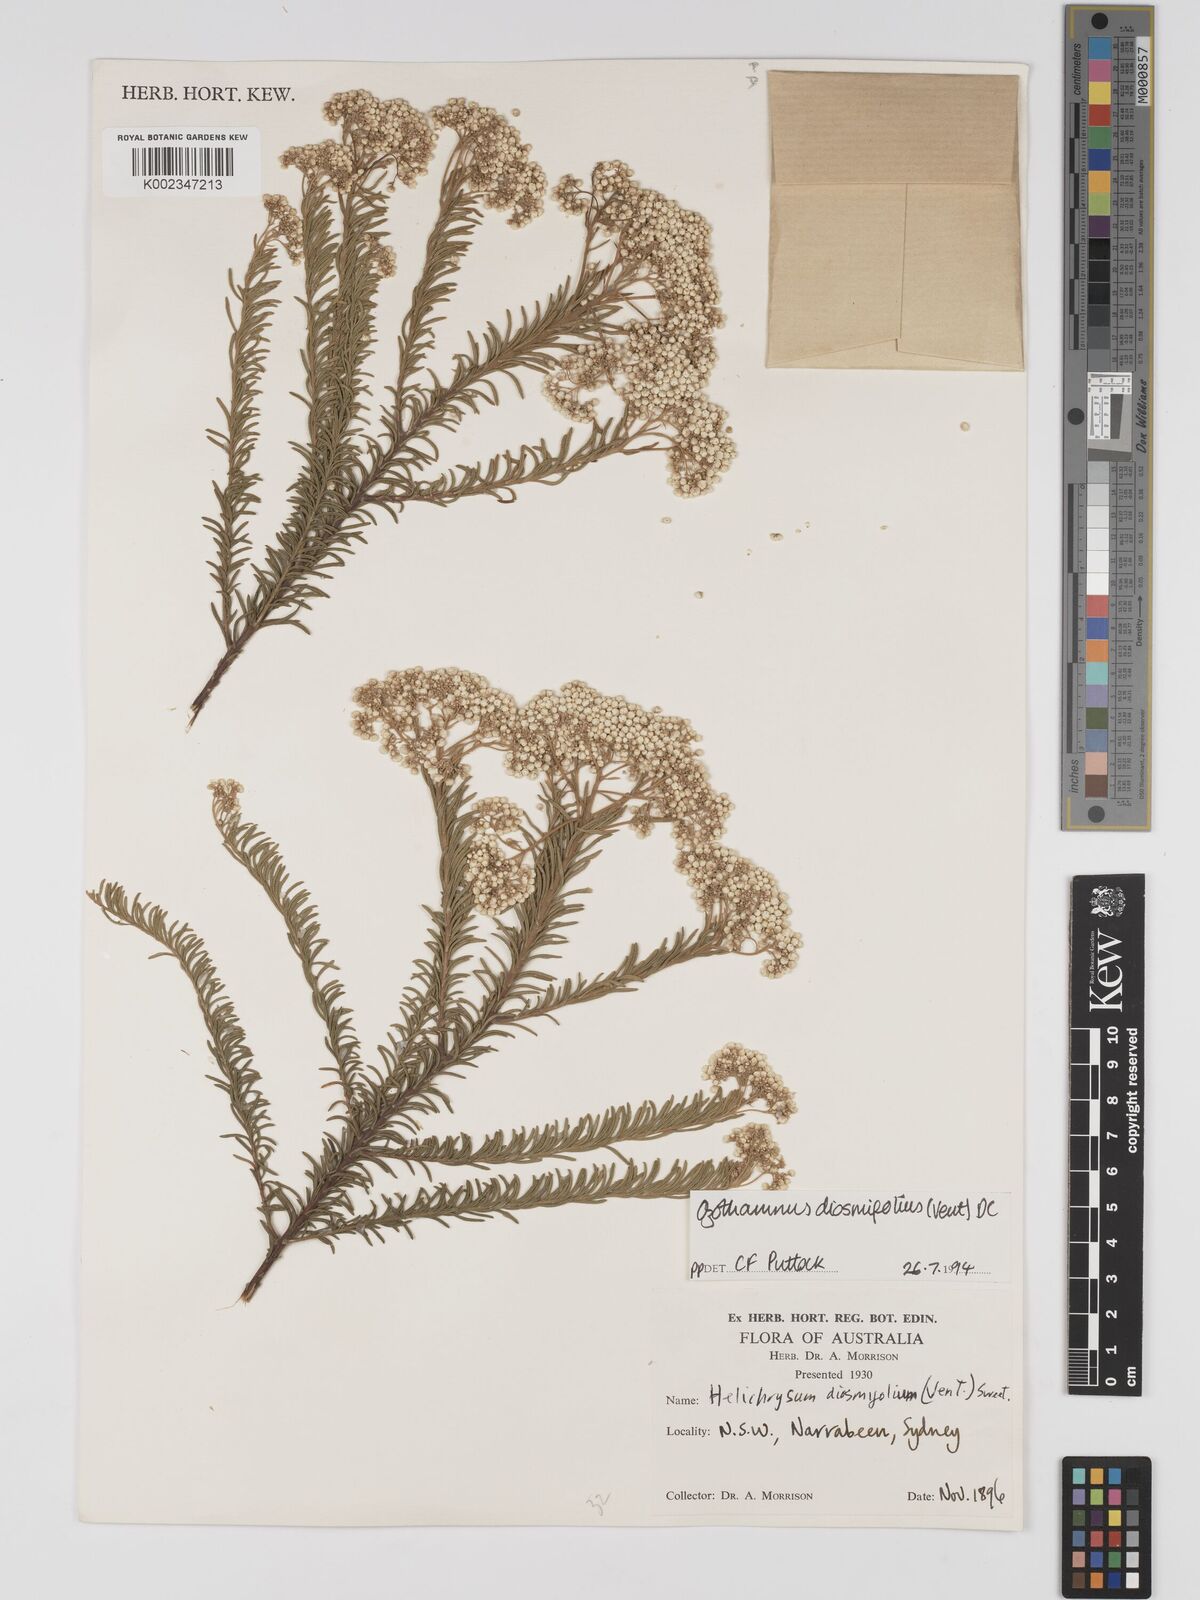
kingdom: Plantae
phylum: Tracheophyta
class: Magnoliopsida
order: Asterales
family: Asteraceae
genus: Ozothamnus
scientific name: Ozothamnus diosmifolius
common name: White-dogwood
